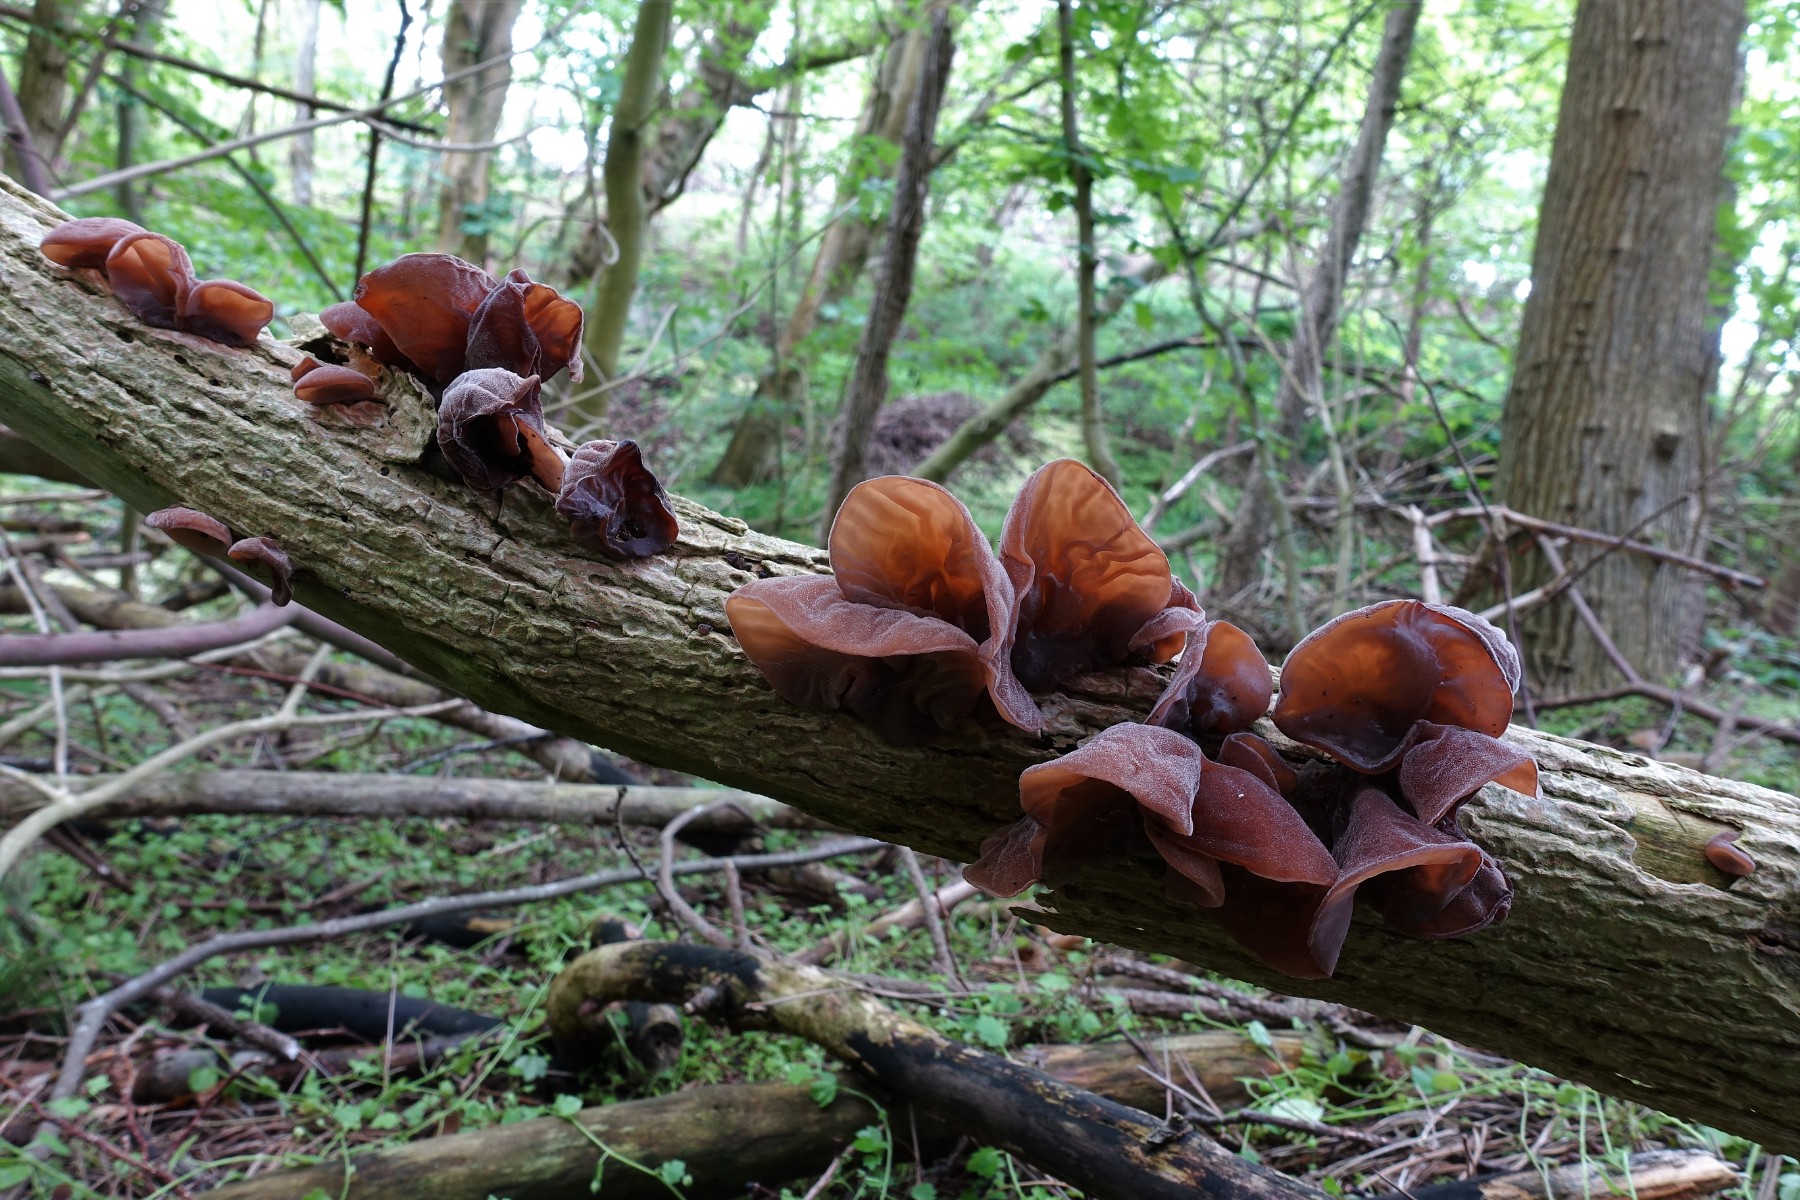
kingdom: Fungi
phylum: Basidiomycota
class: Agaricomycetes
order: Auriculariales
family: Auriculariaceae
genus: Auricularia
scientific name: Auricularia auricula-judae
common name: almindelig judasøre
